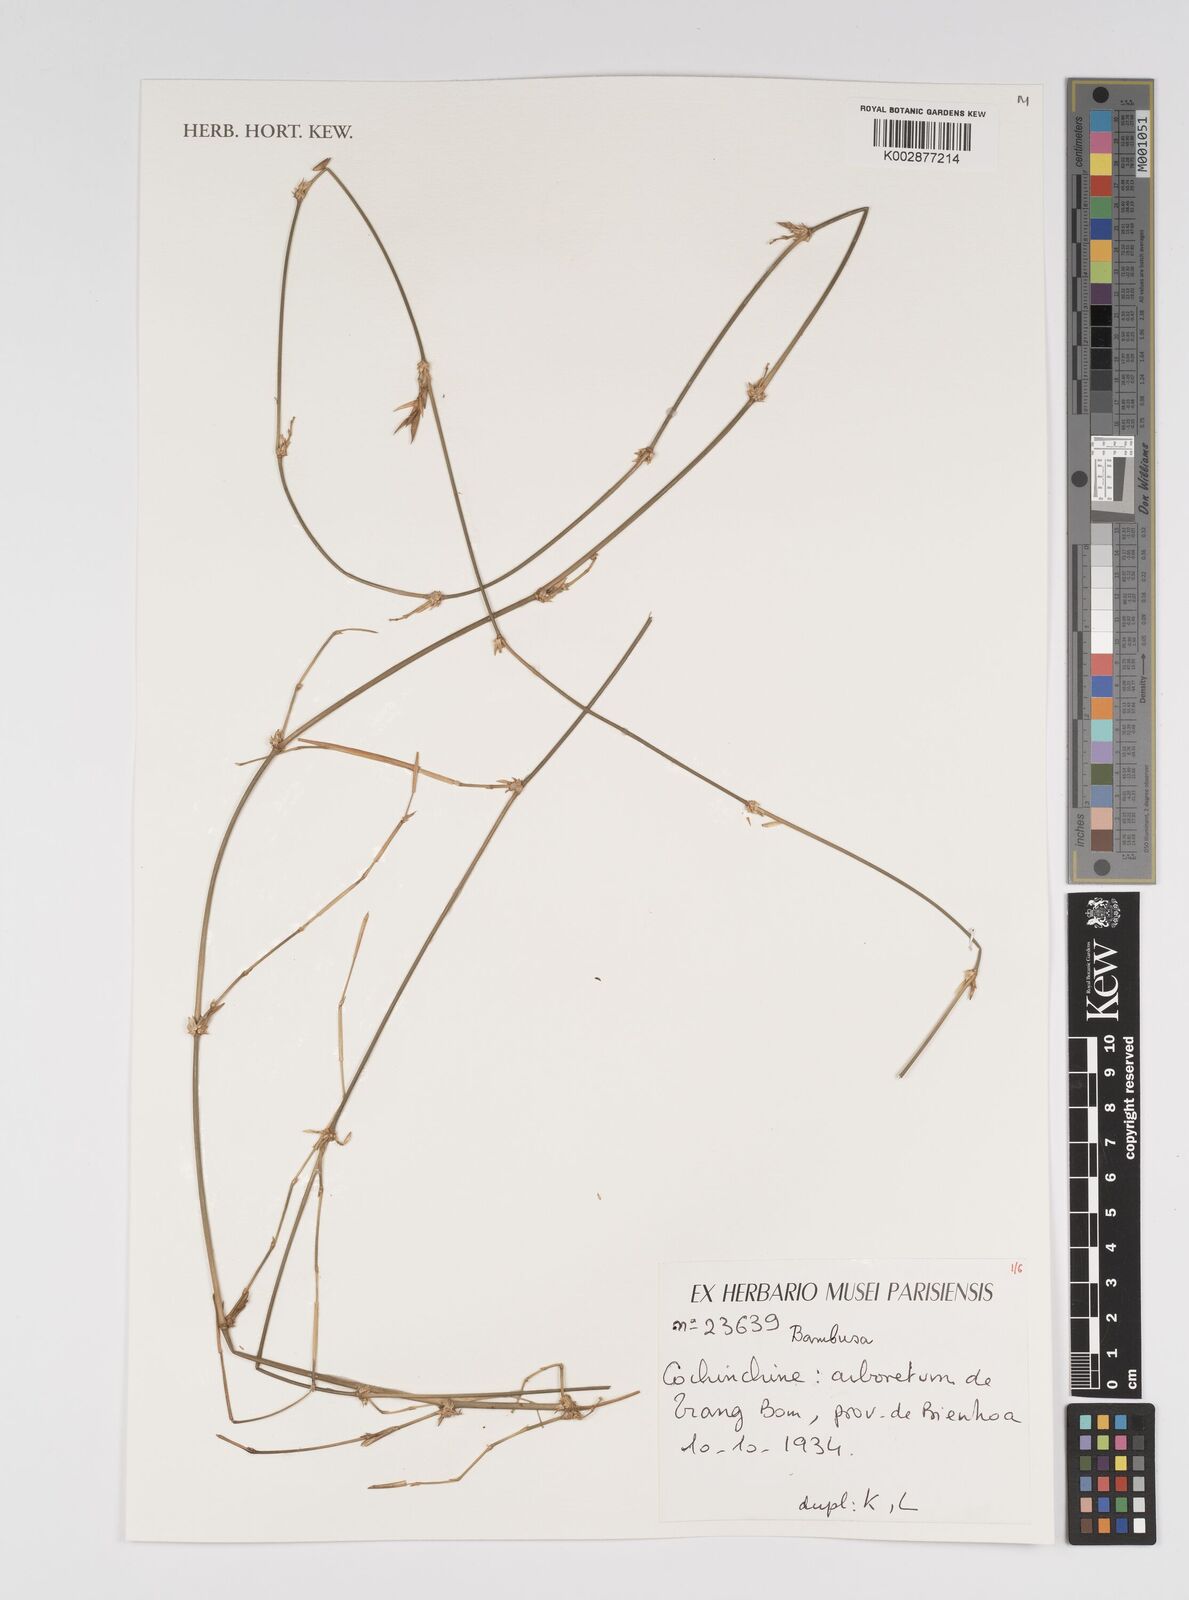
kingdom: Plantae
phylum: Tracheophyta
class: Liliopsida
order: Poales
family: Poaceae
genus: Bambusa
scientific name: Bambusa
